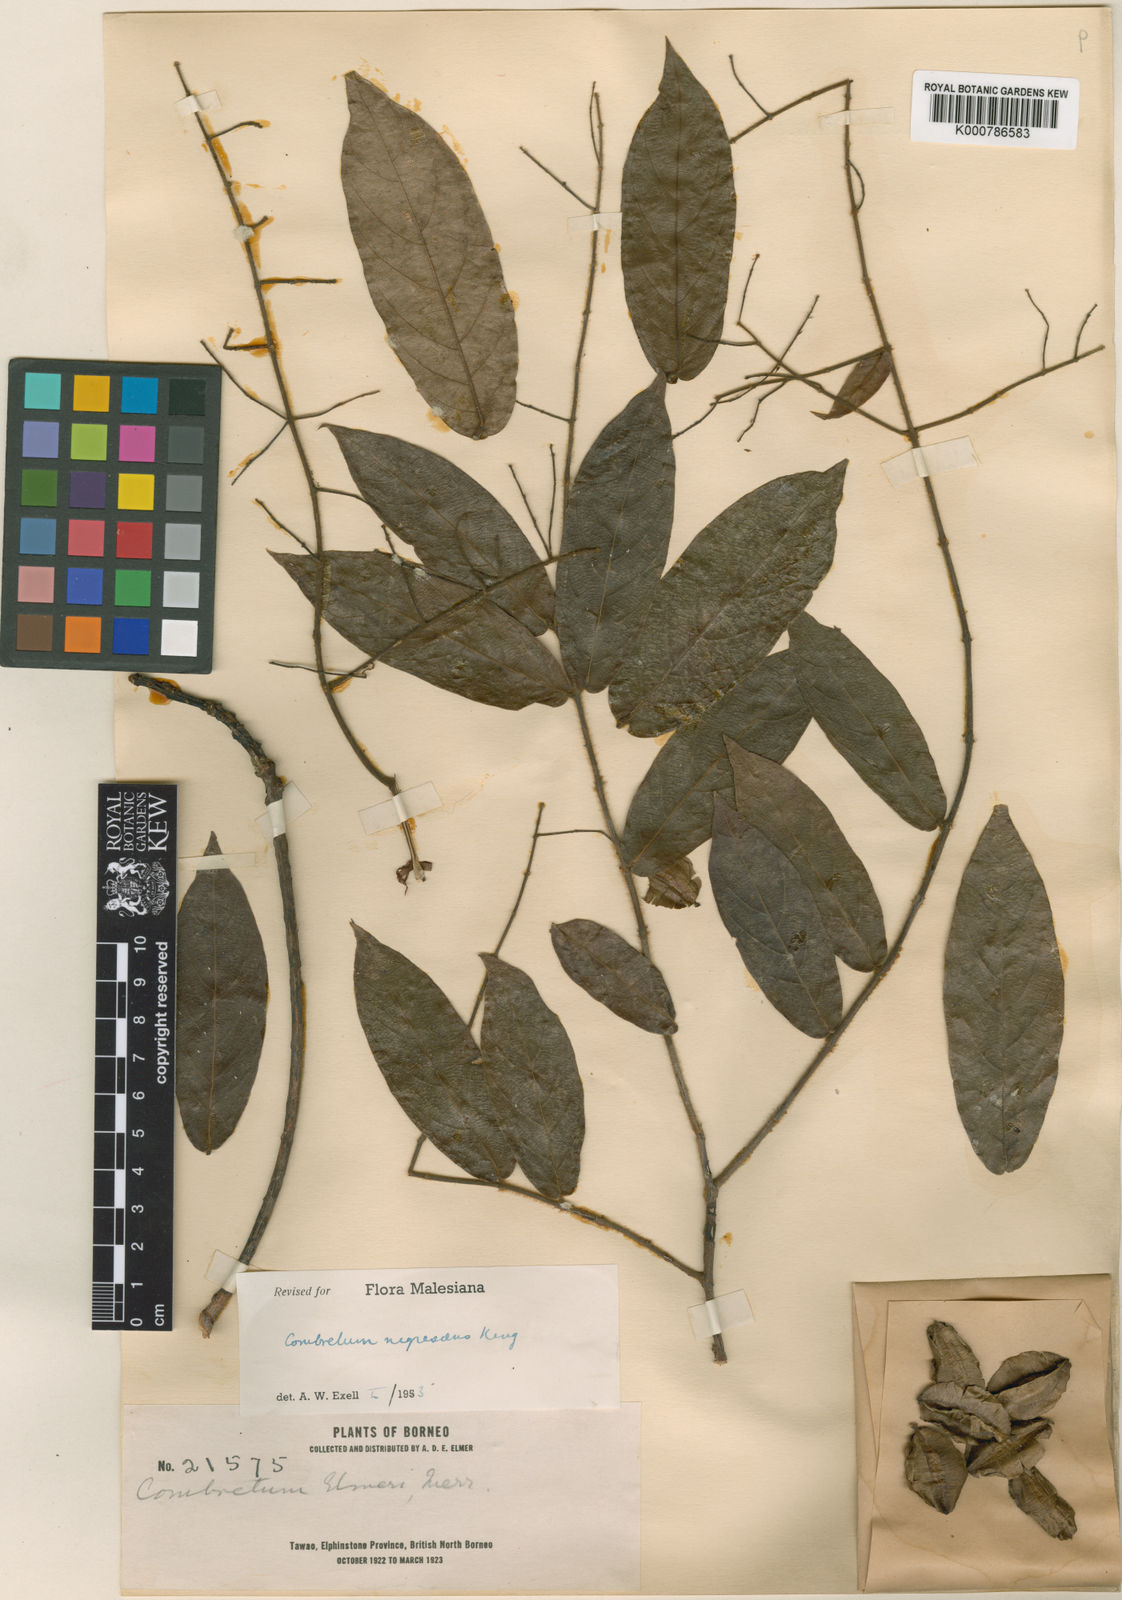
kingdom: Plantae
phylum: Tracheophyta
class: Magnoliopsida
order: Myrtales
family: Combretaceae
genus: Combretum
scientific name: Combretum nigrescens
